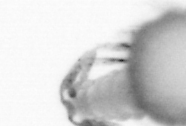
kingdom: Animalia
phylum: Arthropoda
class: Copepoda
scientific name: Copepoda
